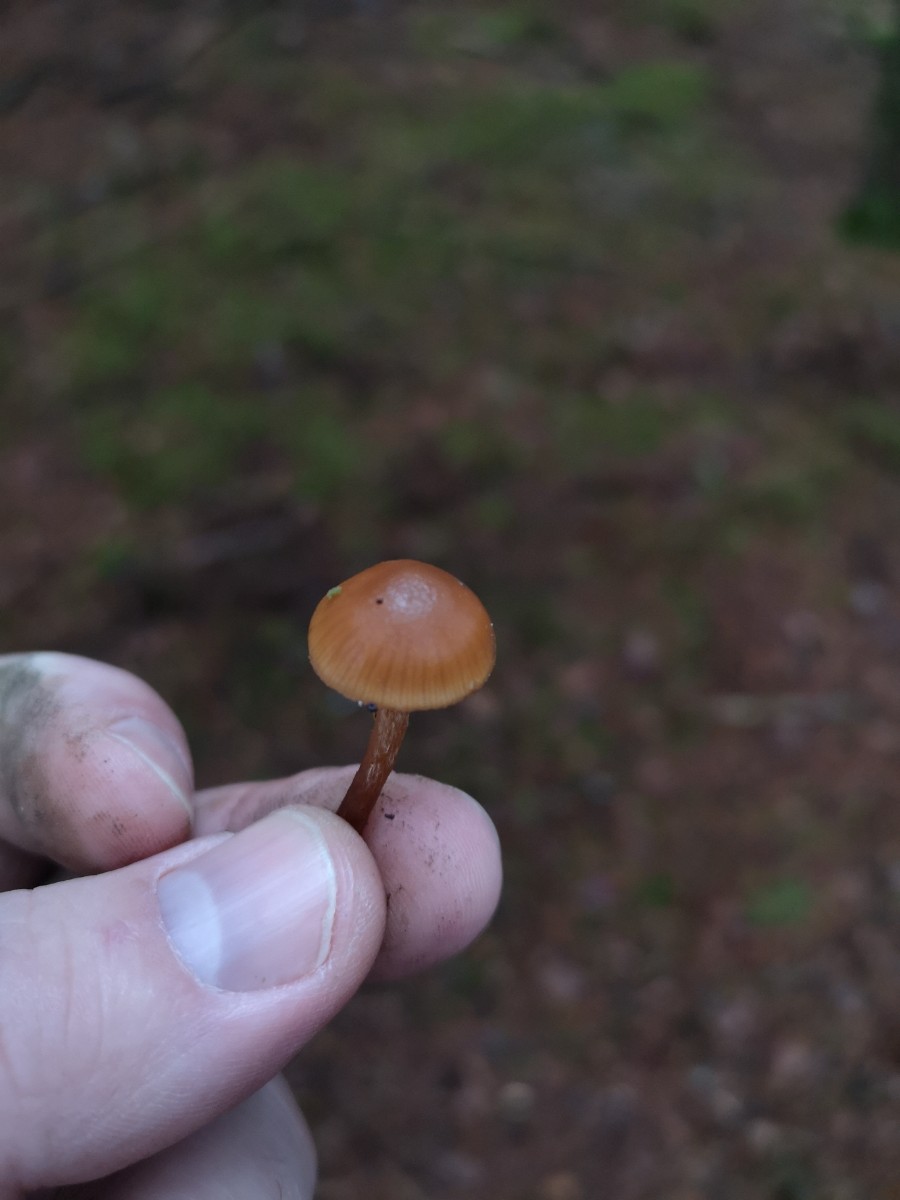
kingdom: Fungi
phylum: Basidiomycota
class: Agaricomycetes
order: Agaricales
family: Hymenogastraceae
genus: Galerina
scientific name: Galerina marginata
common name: randbæltet hjelmhat
